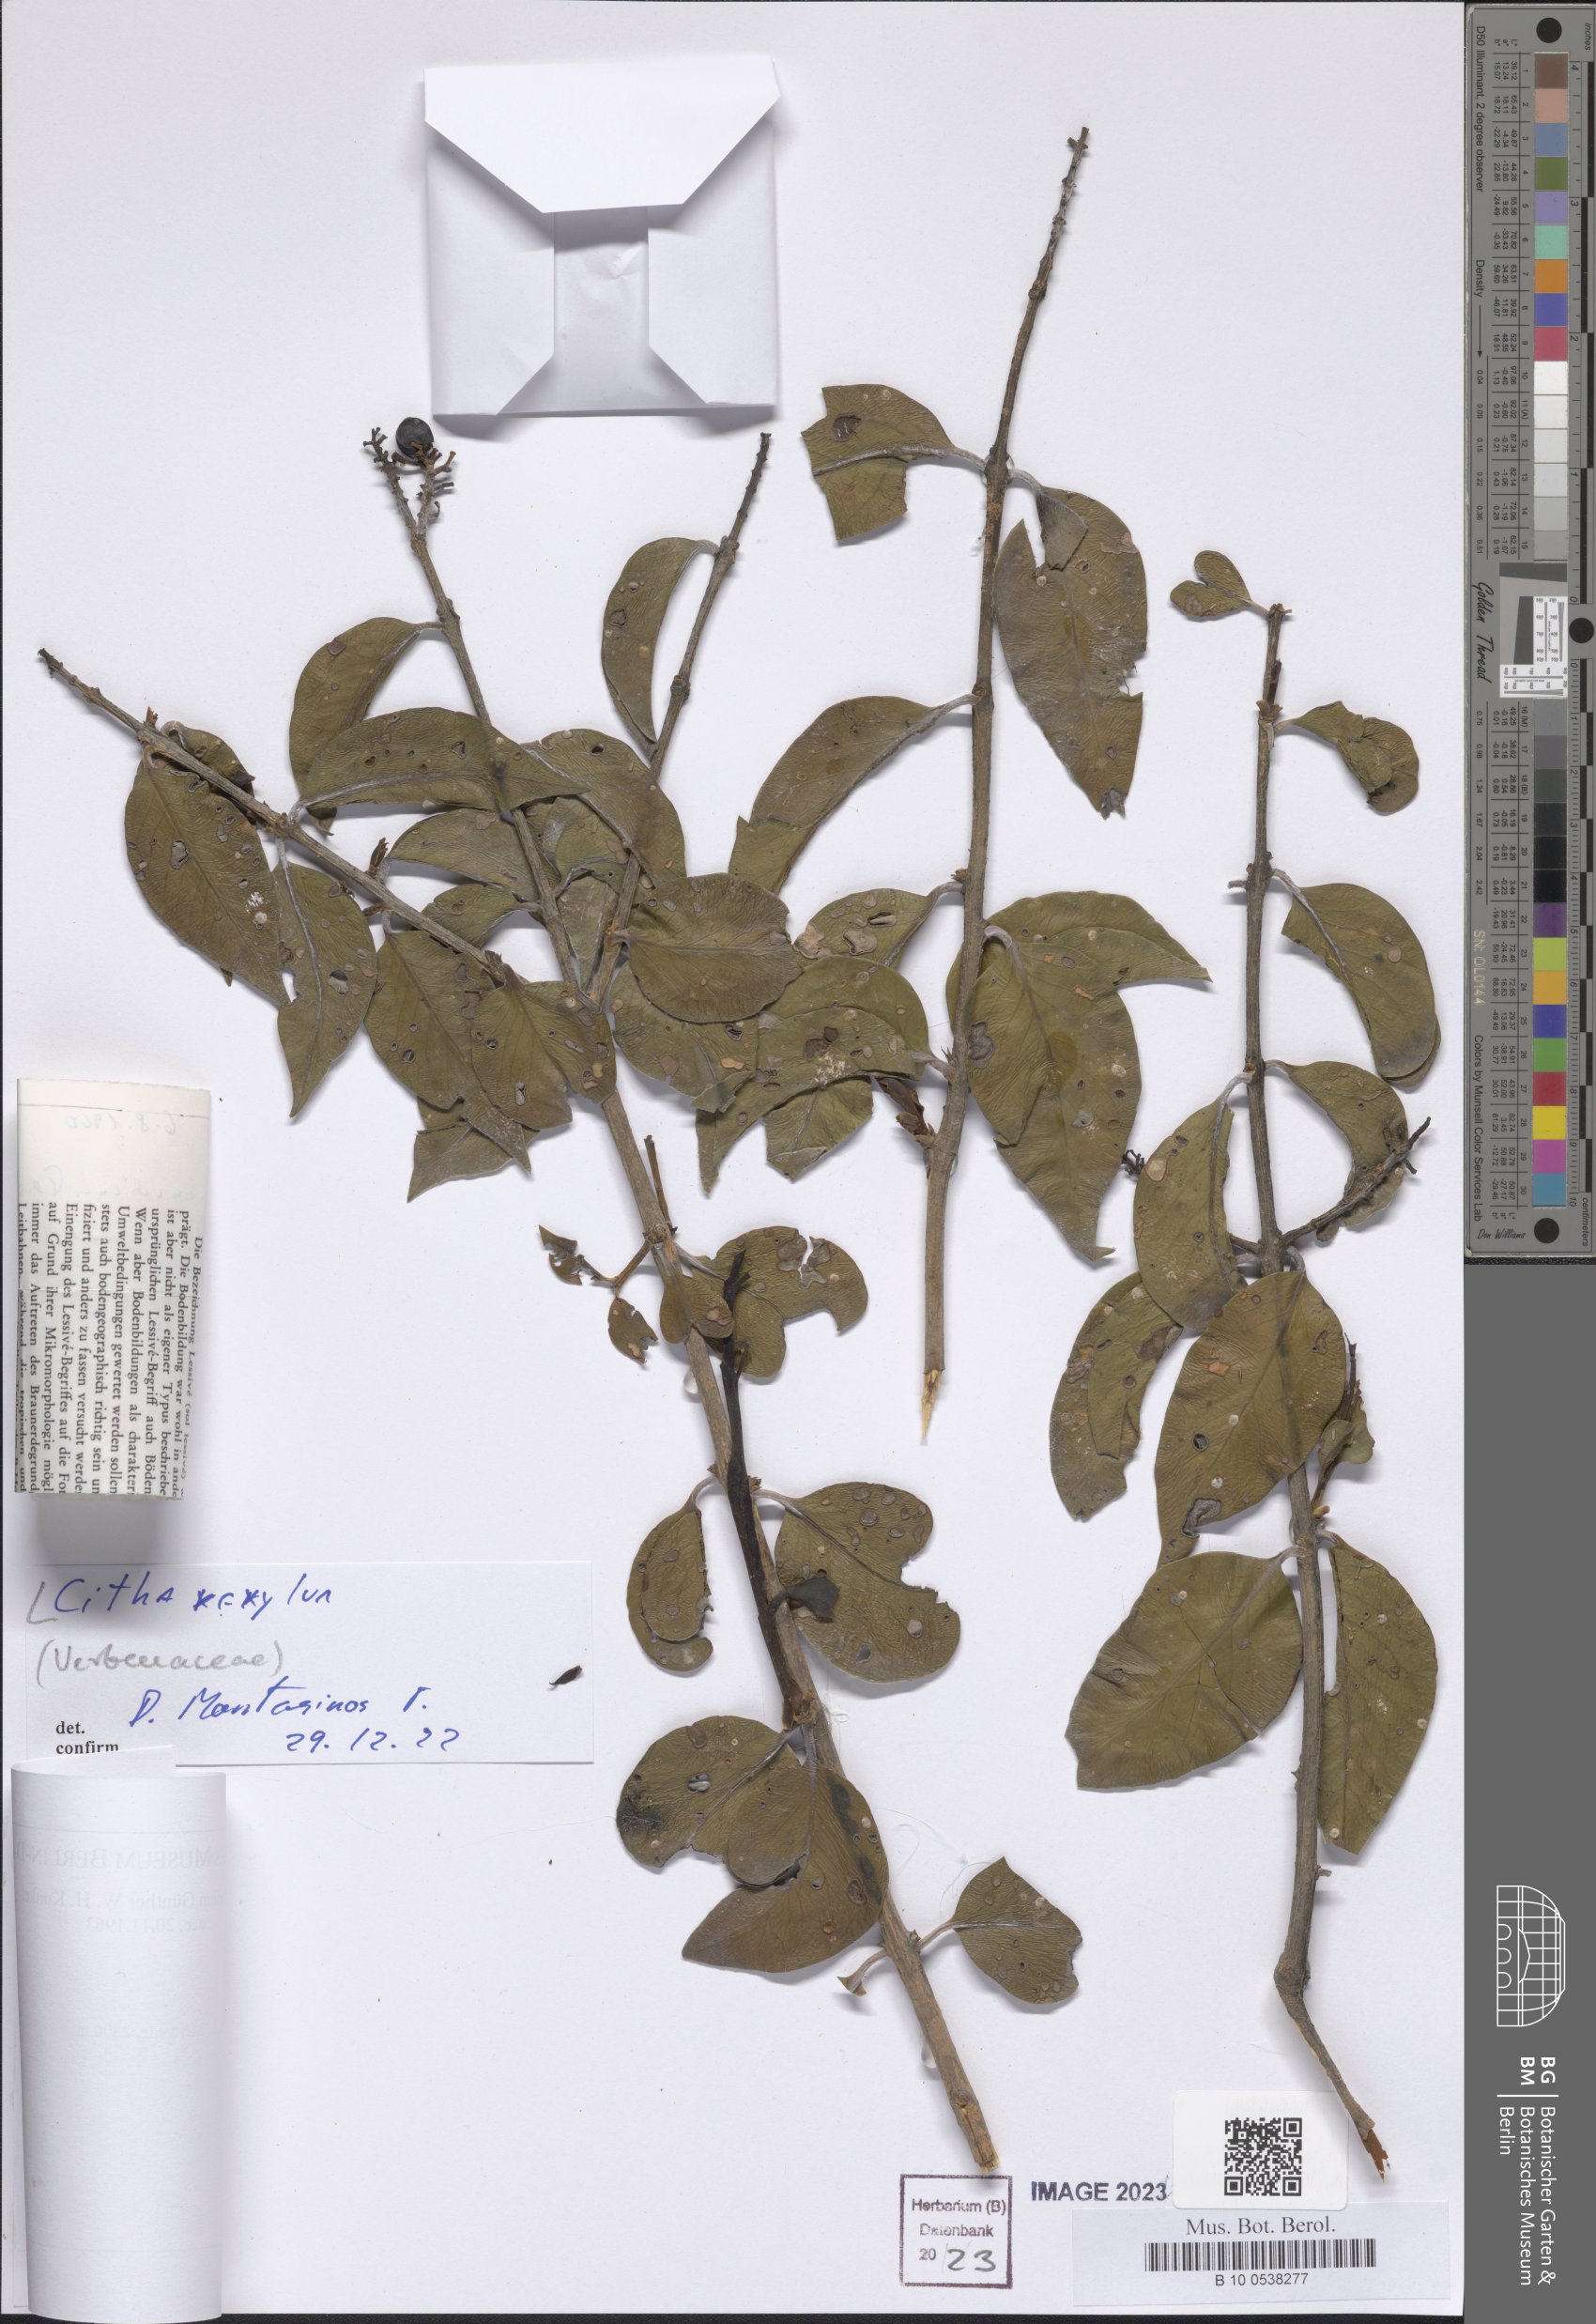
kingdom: Plantae
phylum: Tracheophyta
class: Magnoliopsida
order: Lamiales
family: Verbenaceae
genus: Citharexylum
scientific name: Citharexylum
